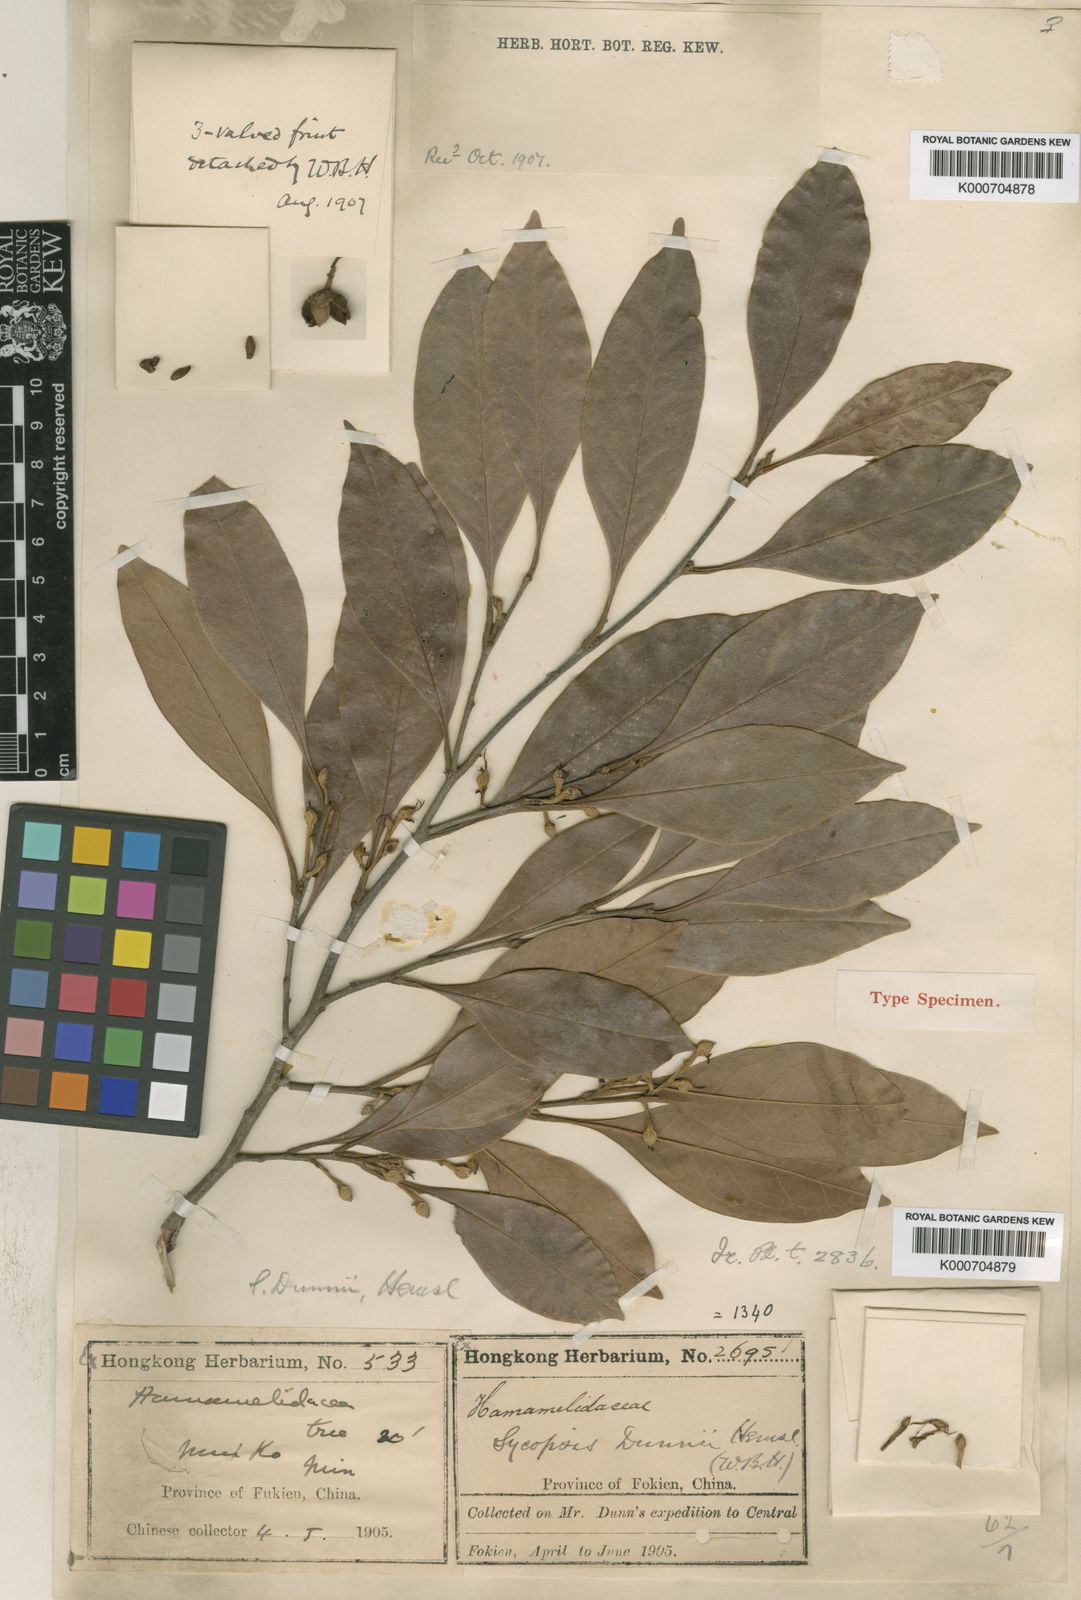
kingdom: Plantae
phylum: Tracheophyta
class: Magnoliopsida
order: Saxifragales
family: Hamamelidaceae
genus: Distyliopsis
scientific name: Distyliopsis dunnii
